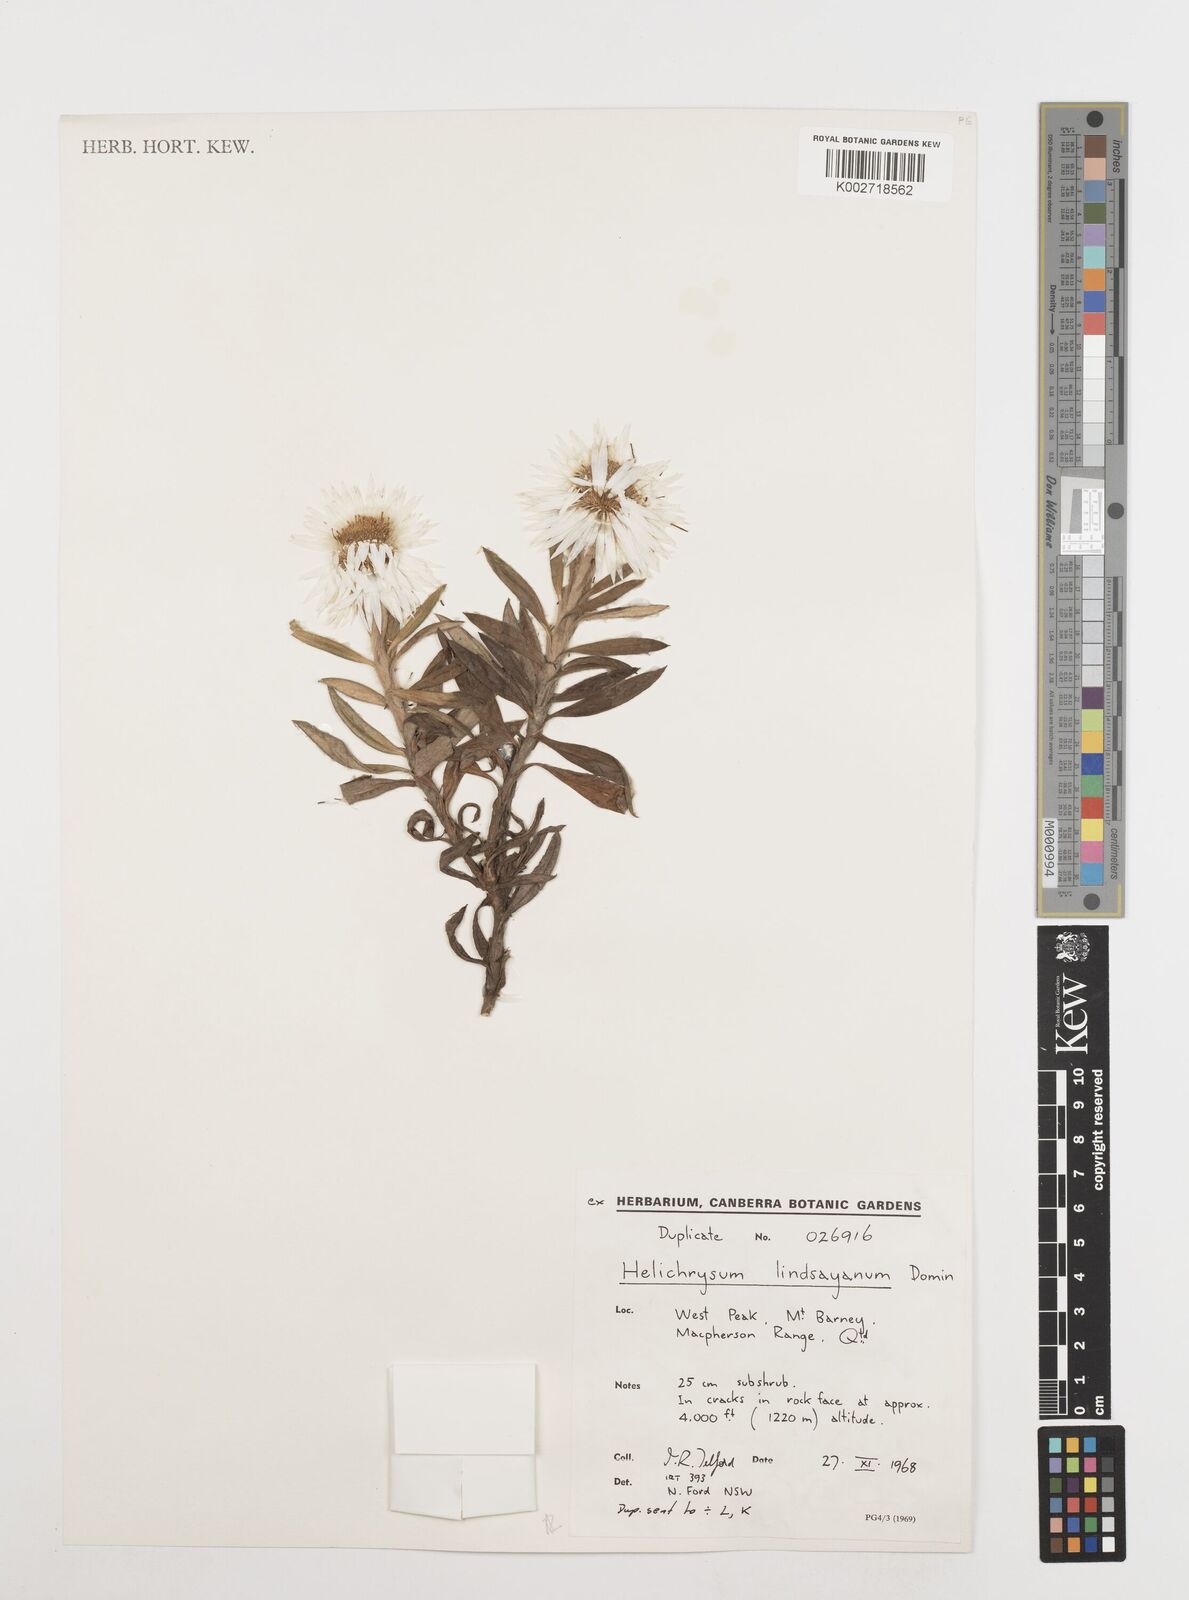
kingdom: Plantae
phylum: Tracheophyta
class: Magnoliopsida
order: Asterales
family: Asteraceae
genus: Leucozoma
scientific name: Leucozoma lindsayanum
